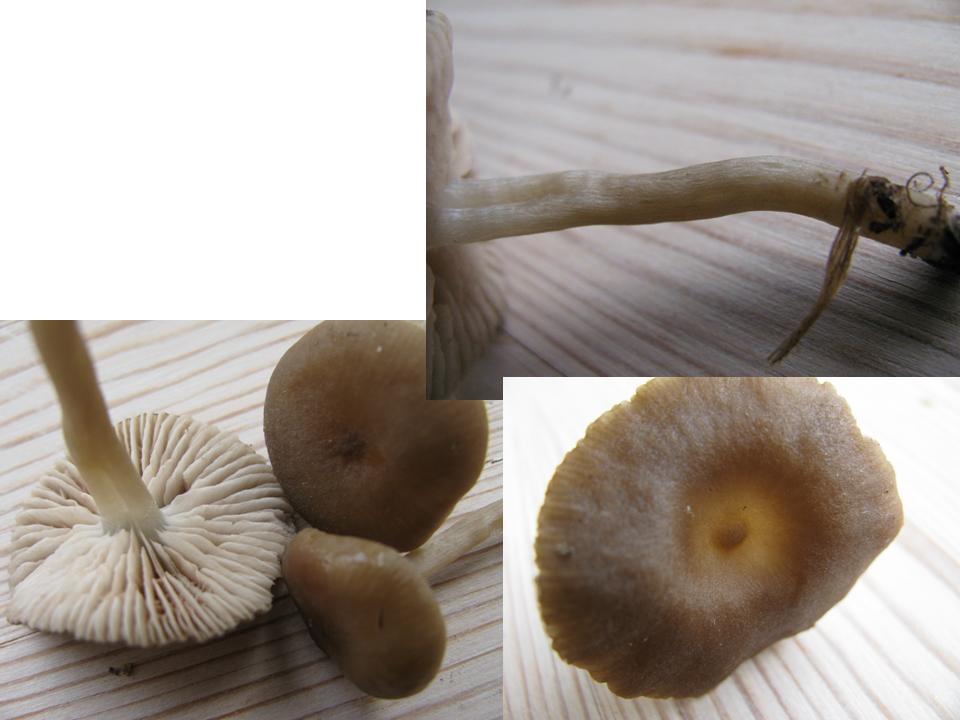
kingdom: Fungi
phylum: Basidiomycota
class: Agaricomycetes
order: Agaricales
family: Entolomataceae
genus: Entoloma
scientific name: Entoloma sordidulum
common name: smudsig rødblad
